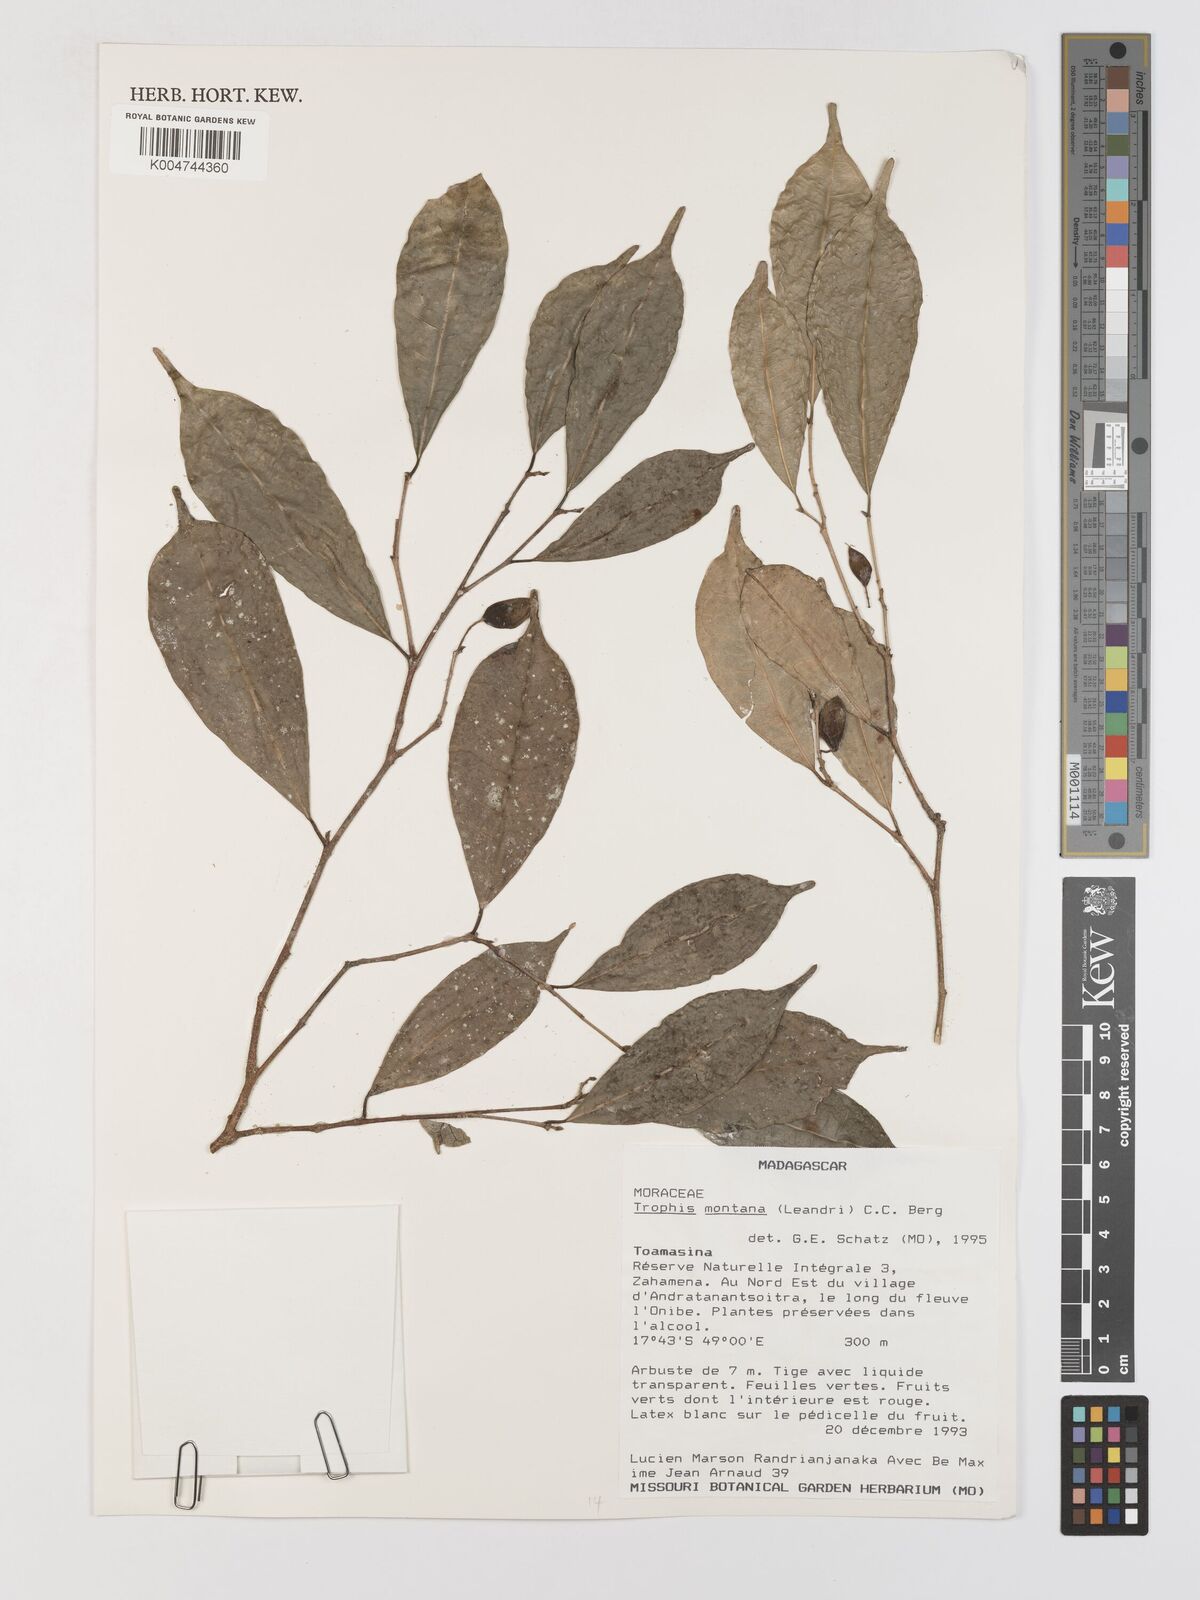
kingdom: Plantae
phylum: Tracheophyta
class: Magnoliopsida
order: Rosales
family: Moraceae
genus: Maillardia
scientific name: Maillardia montana
